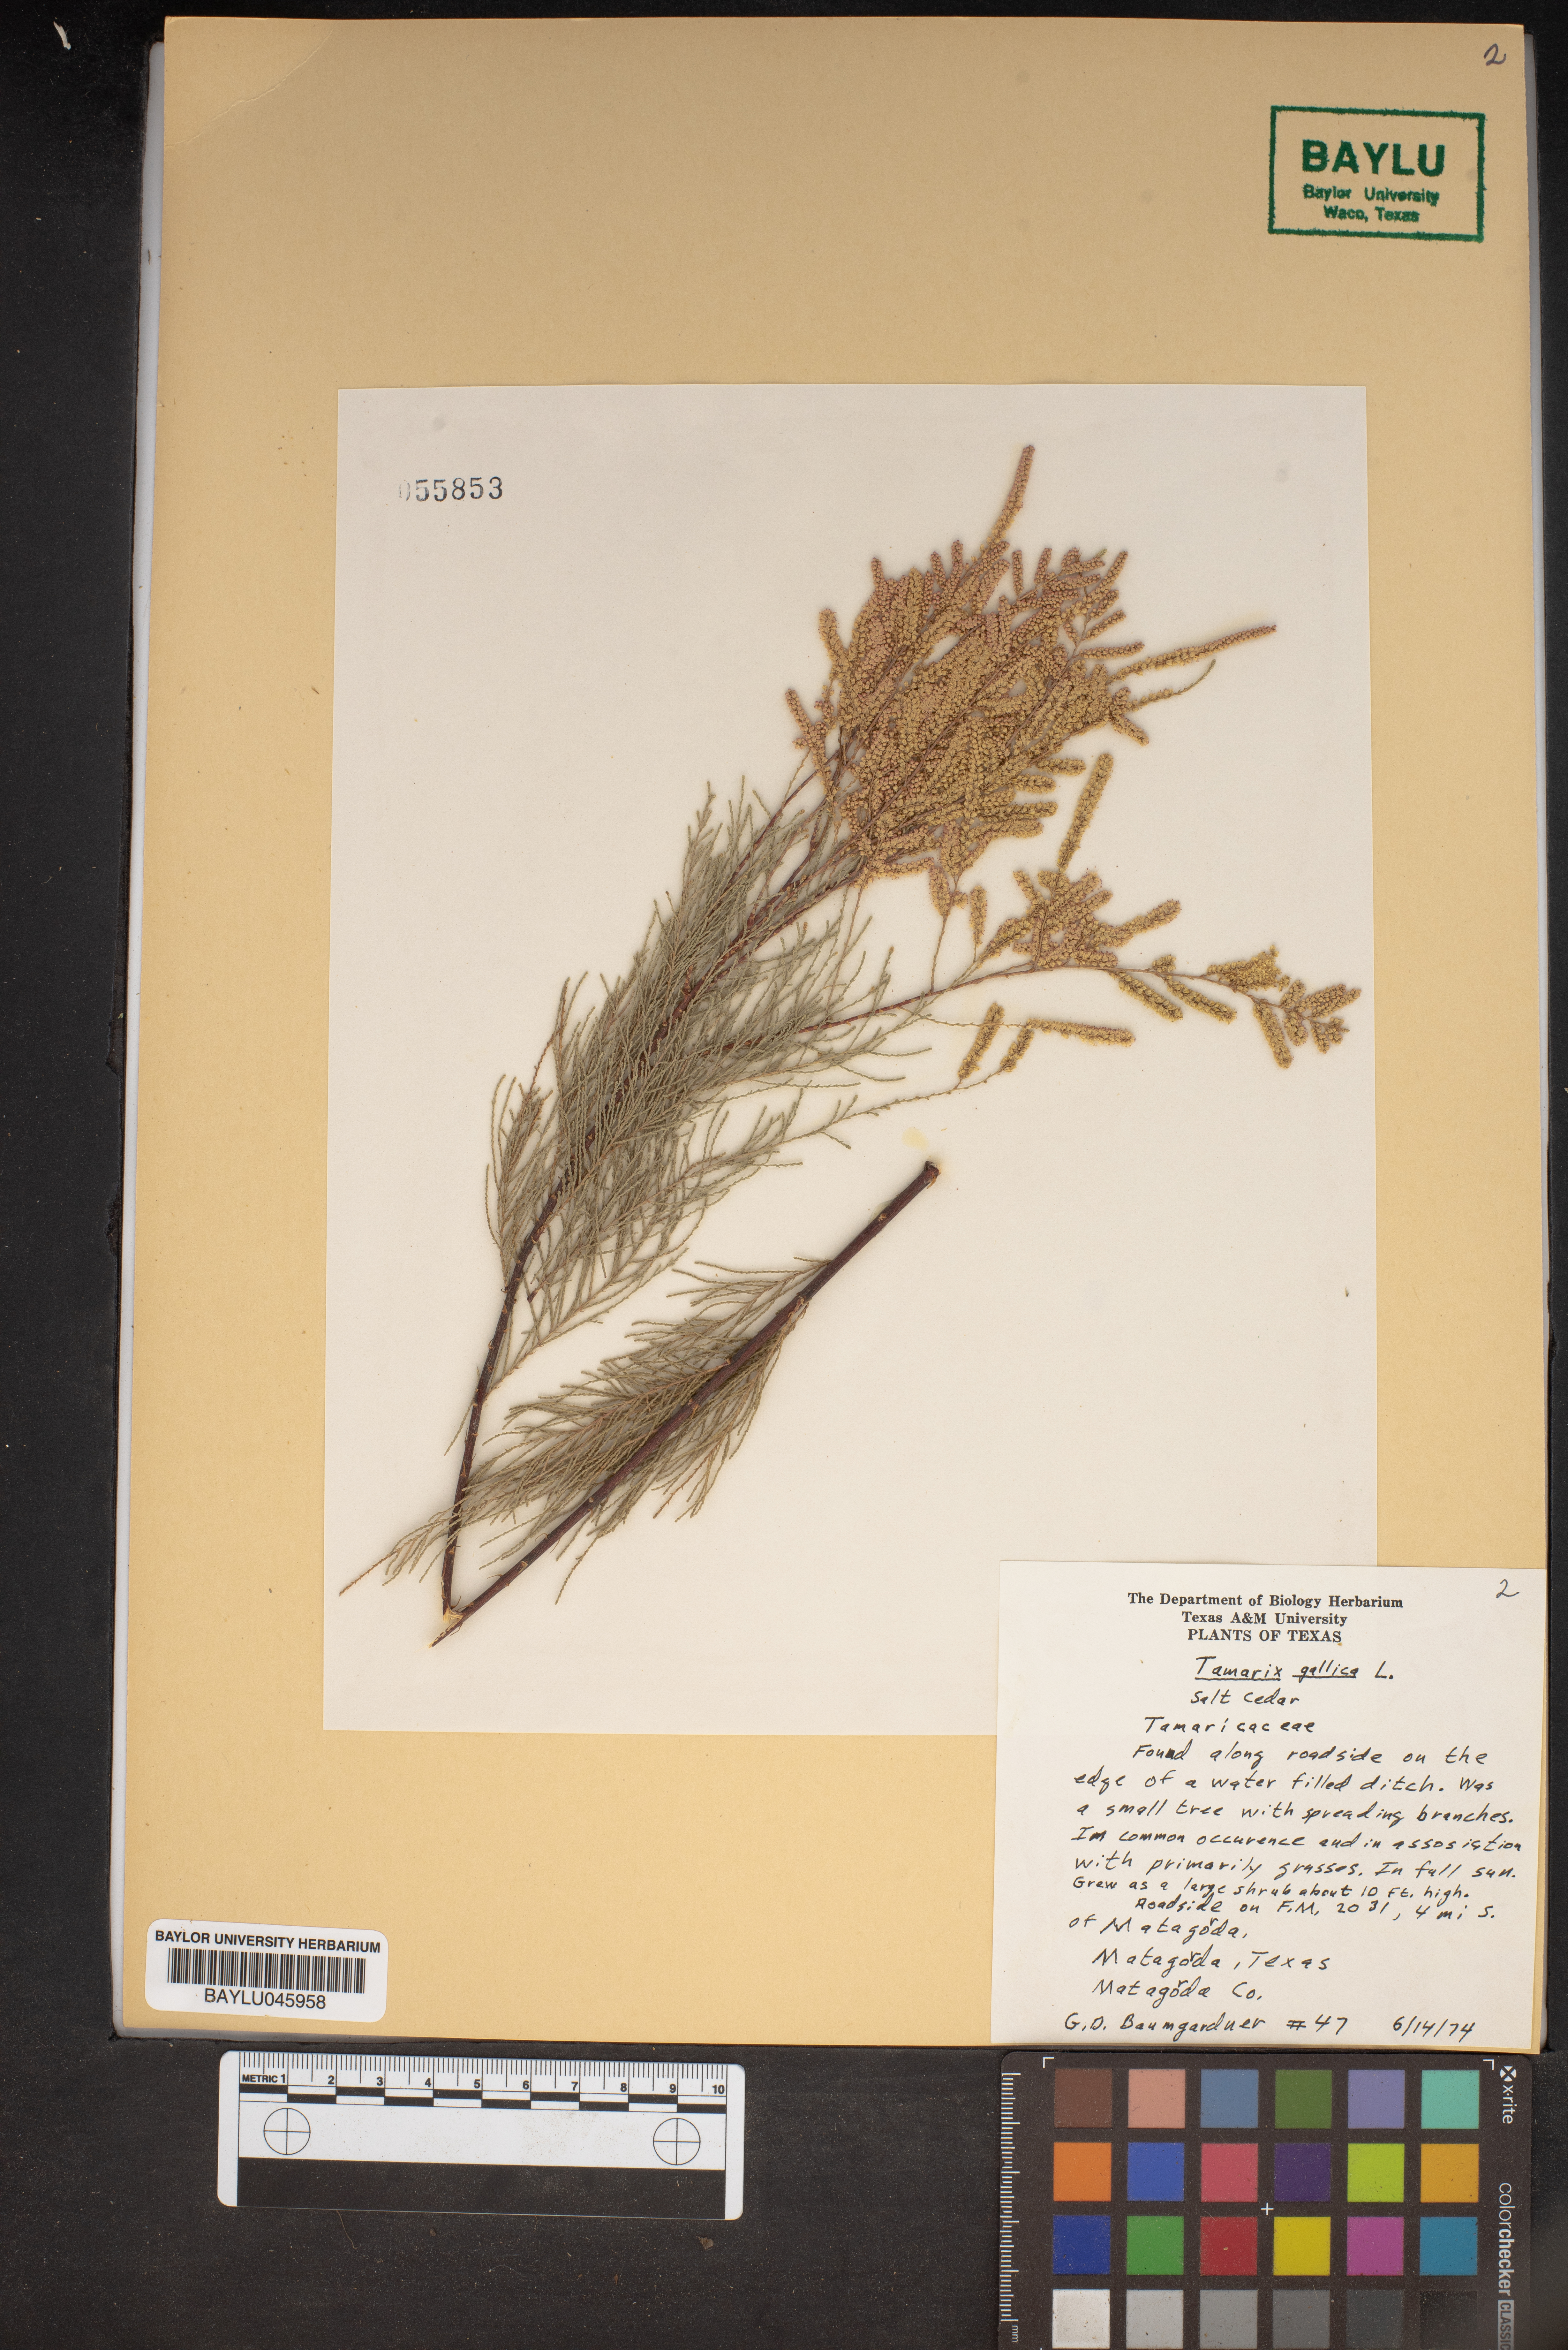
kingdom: Plantae
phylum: Tracheophyta
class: Magnoliopsida
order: Caryophyllales
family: Tamaricaceae
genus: Tamarix
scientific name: Tamarix gallica
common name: Tamarisk
